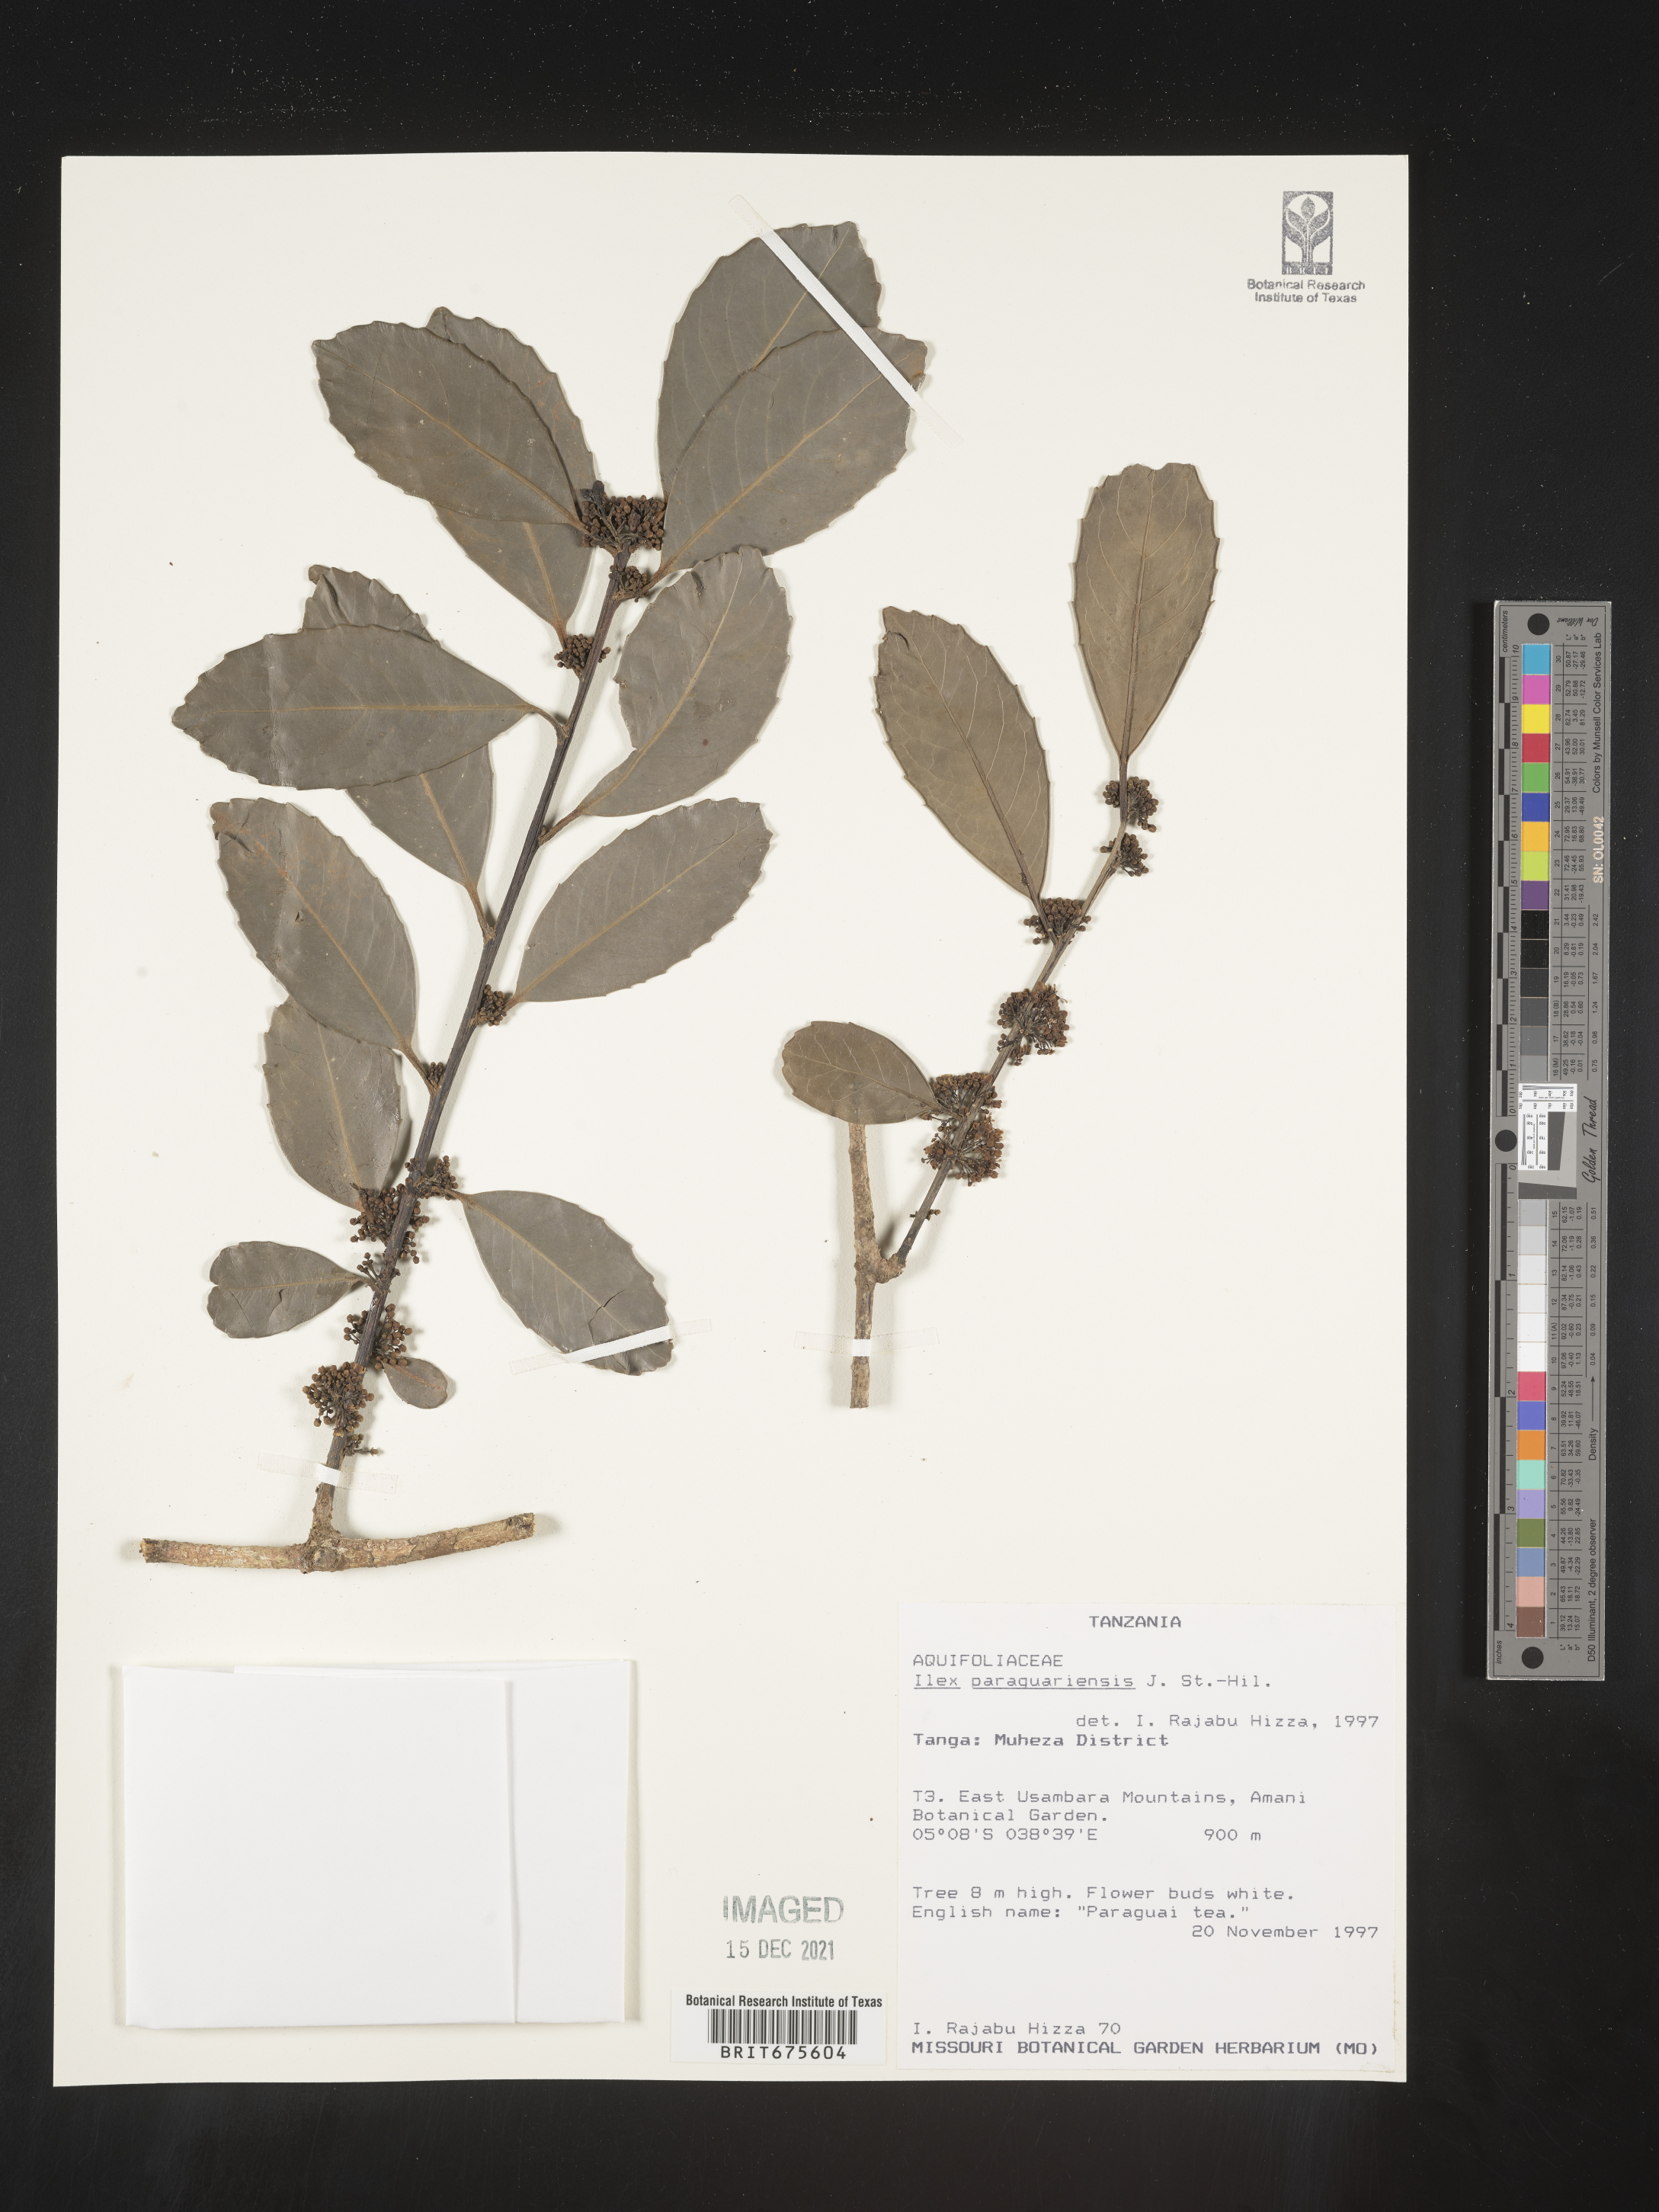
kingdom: Plantae
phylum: Tracheophyta
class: Magnoliopsida
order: Aquifoliales
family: Aquifoliaceae
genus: Ilex
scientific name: Ilex
